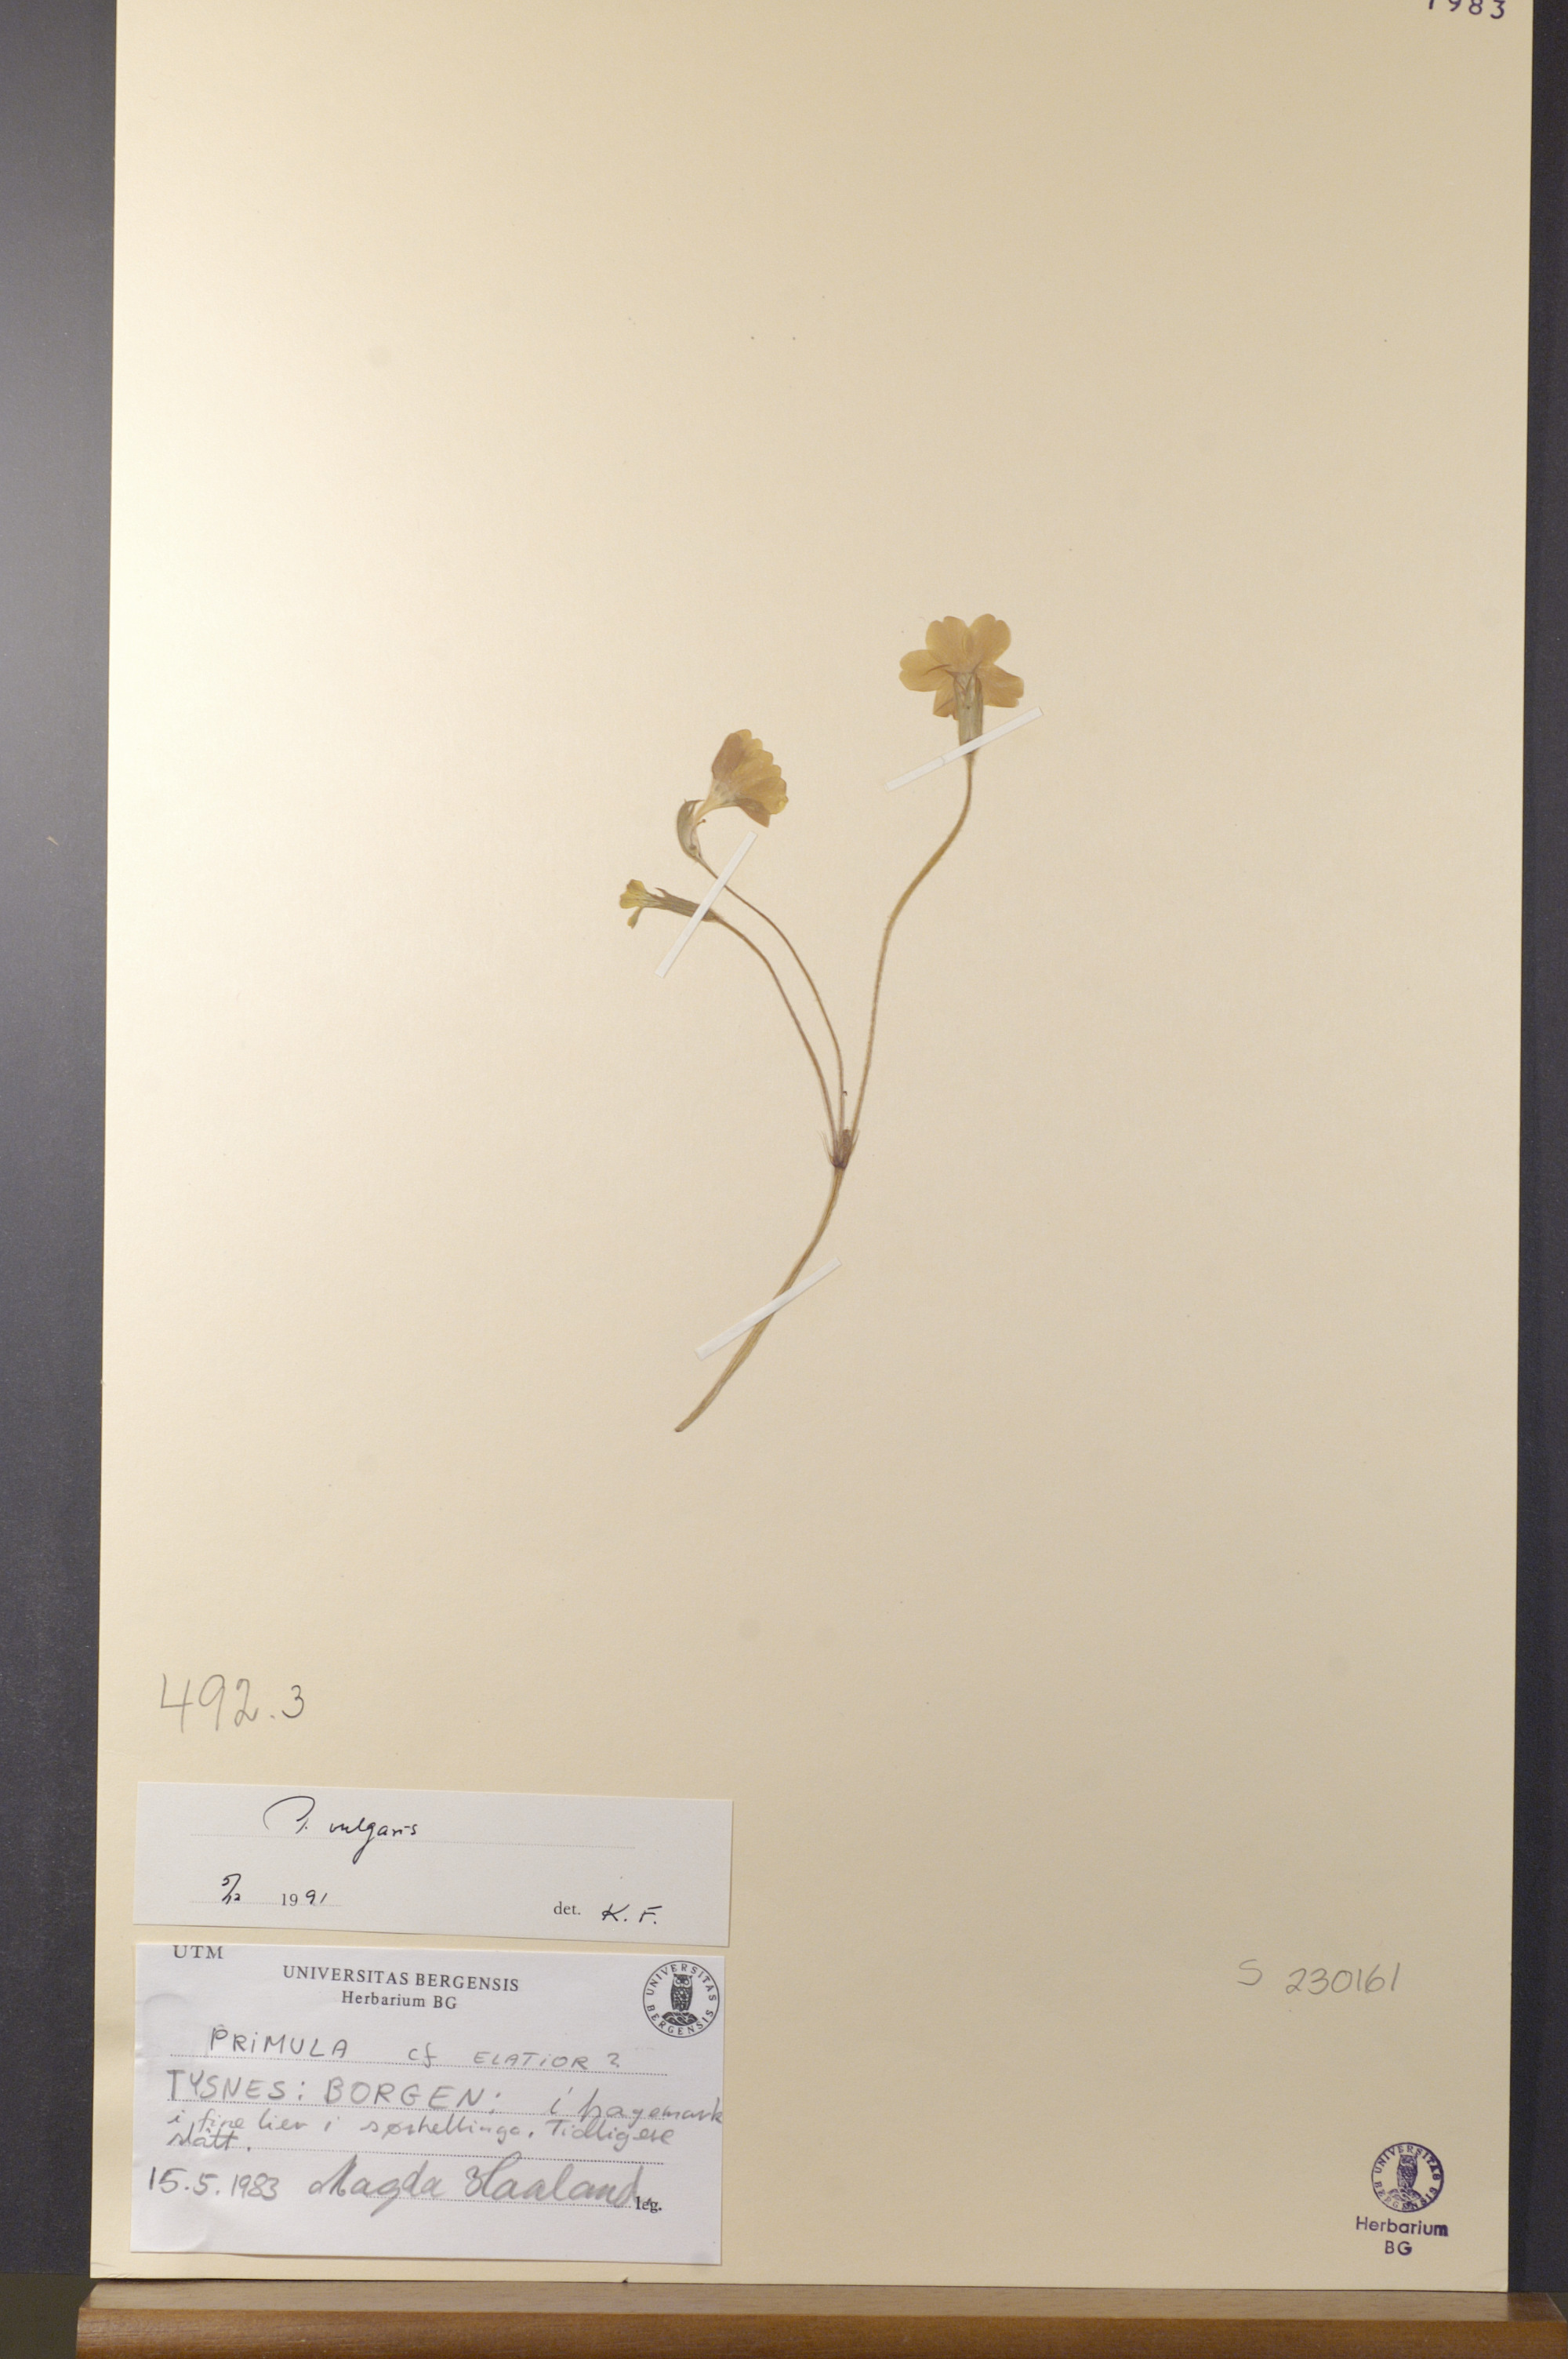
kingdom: Plantae
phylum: Tracheophyta
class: Magnoliopsida
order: Ericales
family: Primulaceae
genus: Primula
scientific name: Primula vulgaris
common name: Primrose
